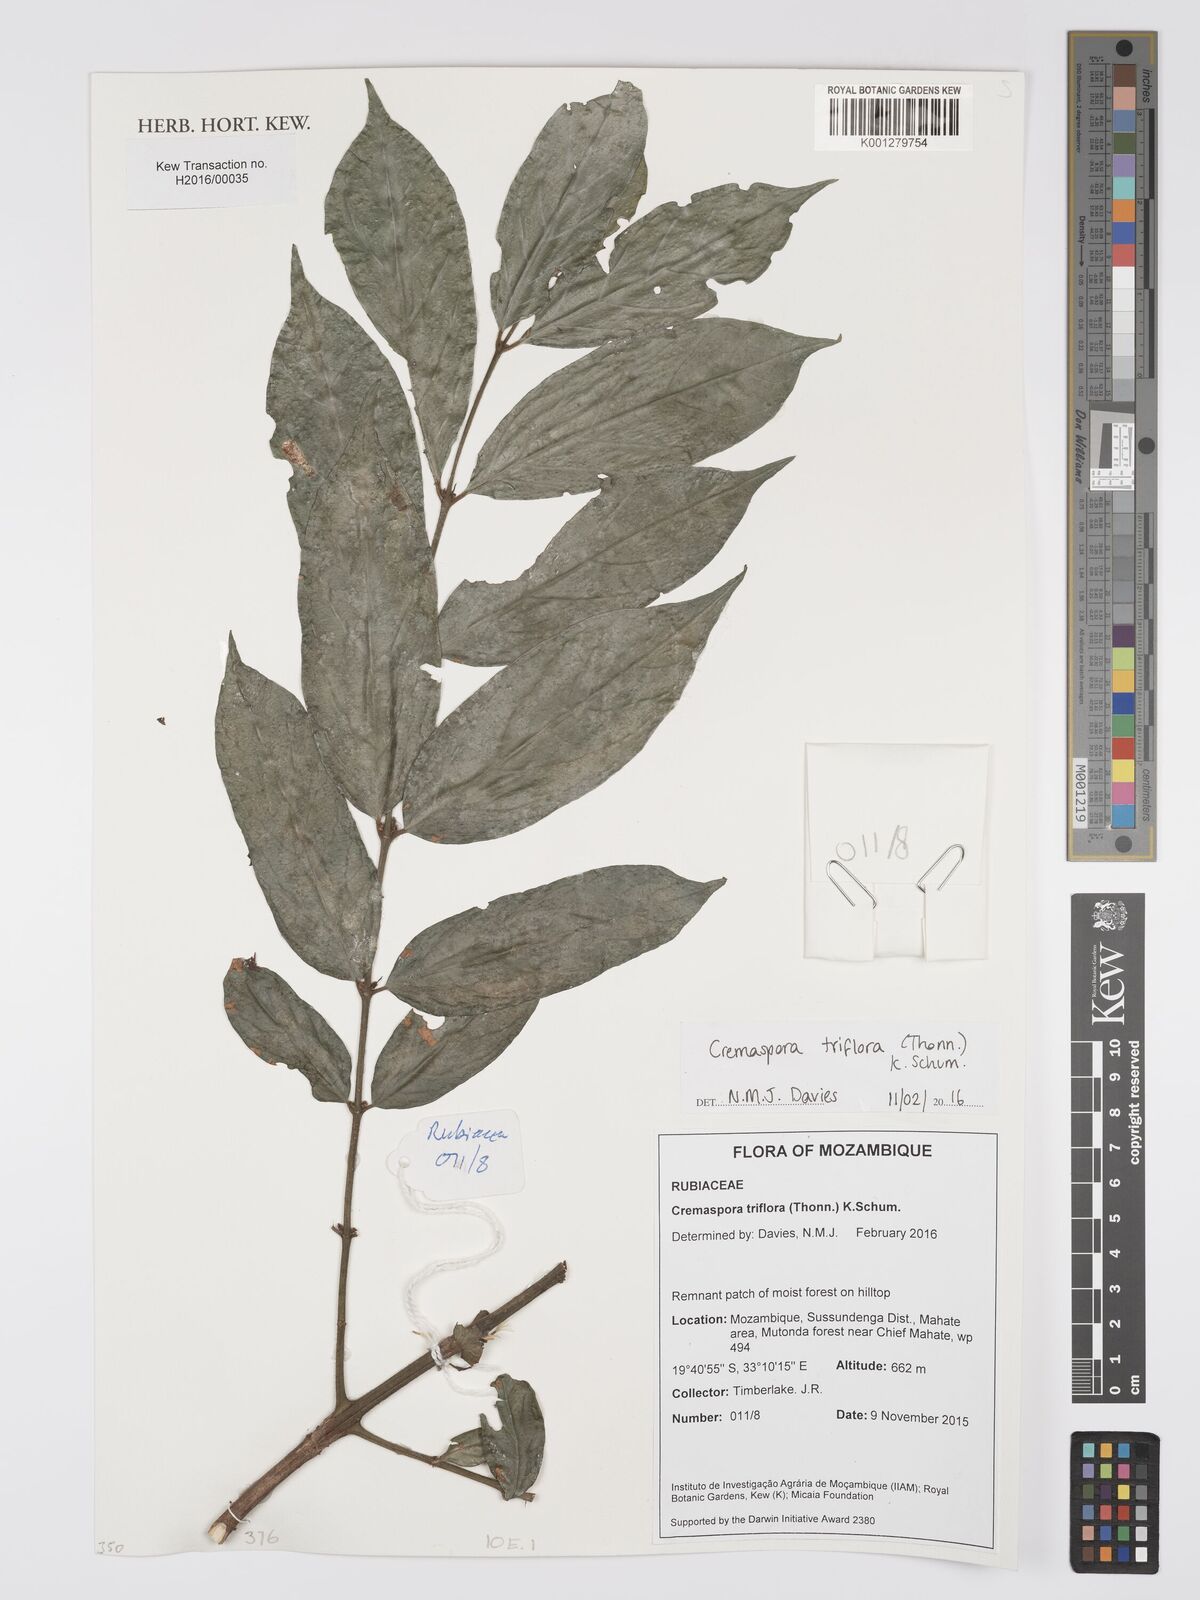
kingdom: Plantae
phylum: Tracheophyta
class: Magnoliopsida
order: Gentianales
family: Rubiaceae
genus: Cremaspora
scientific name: Cremaspora triflora
